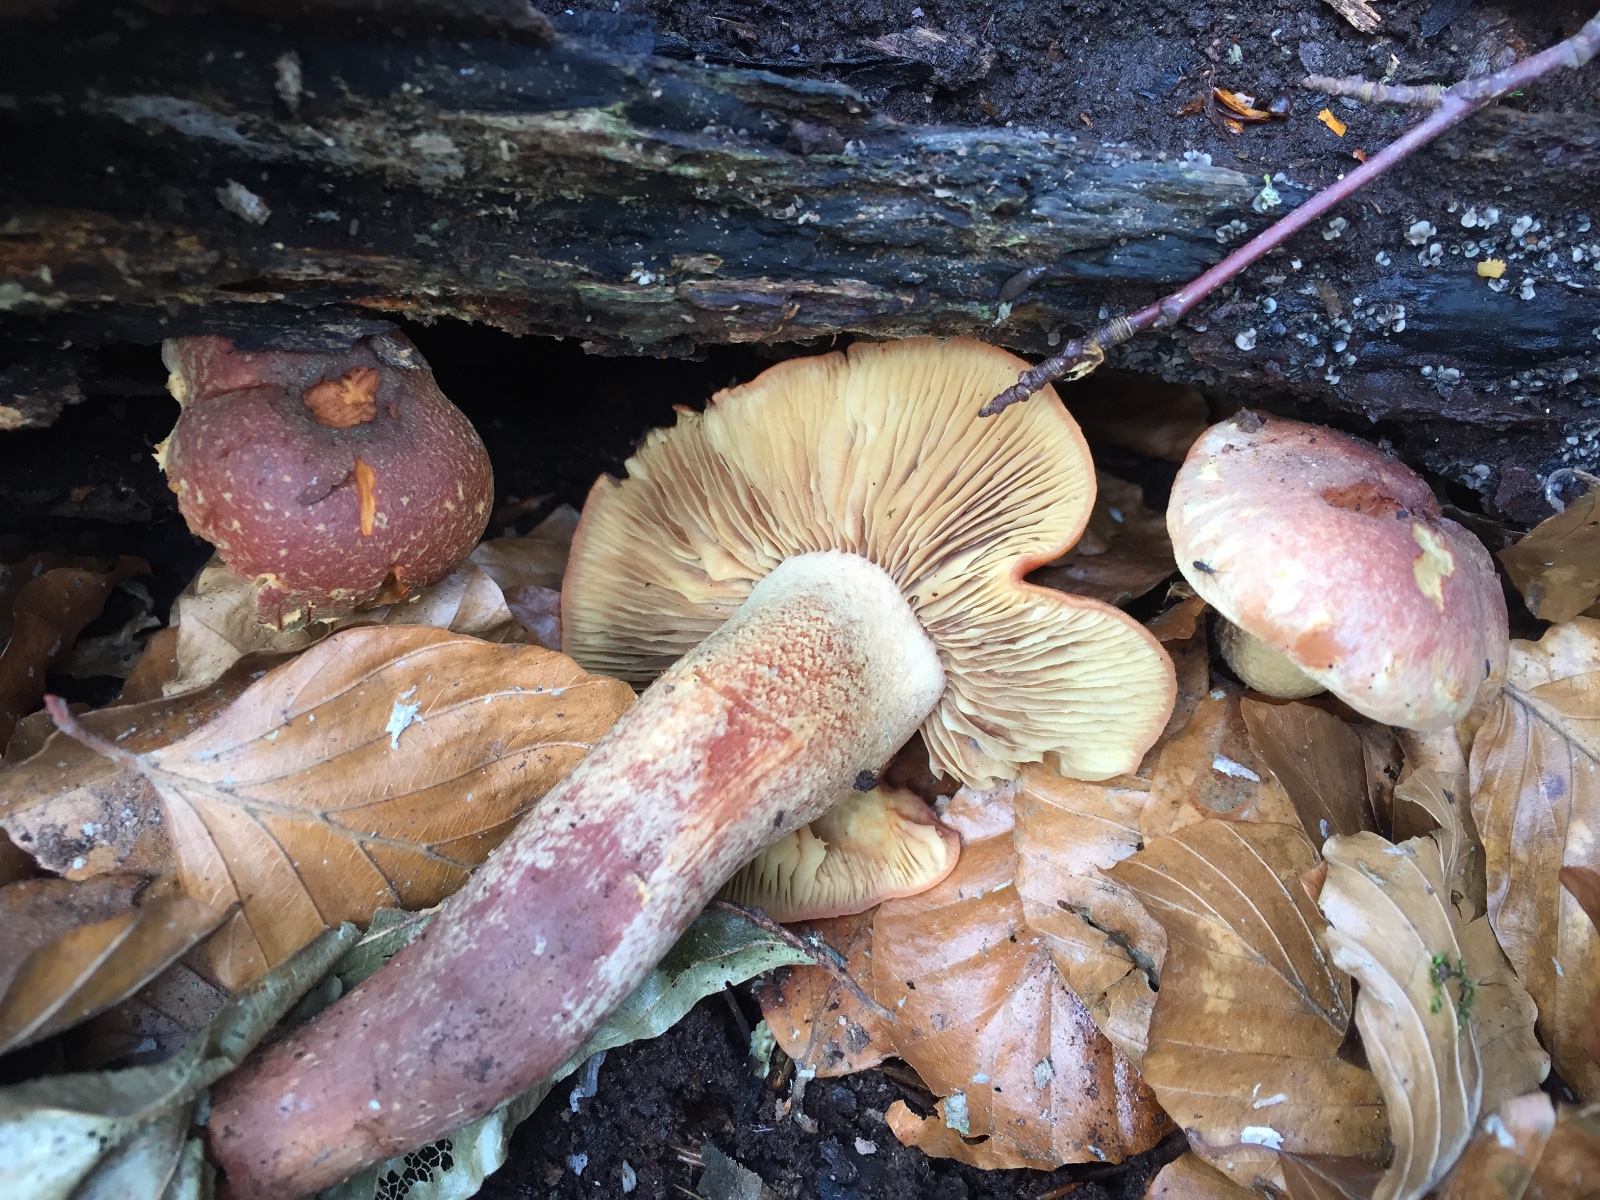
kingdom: Fungi
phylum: Basidiomycota
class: Agaricomycetes
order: Agaricales
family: Strophariaceae
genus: Hypholoma
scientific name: Hypholoma lateritium
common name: teglrød svovlhat
